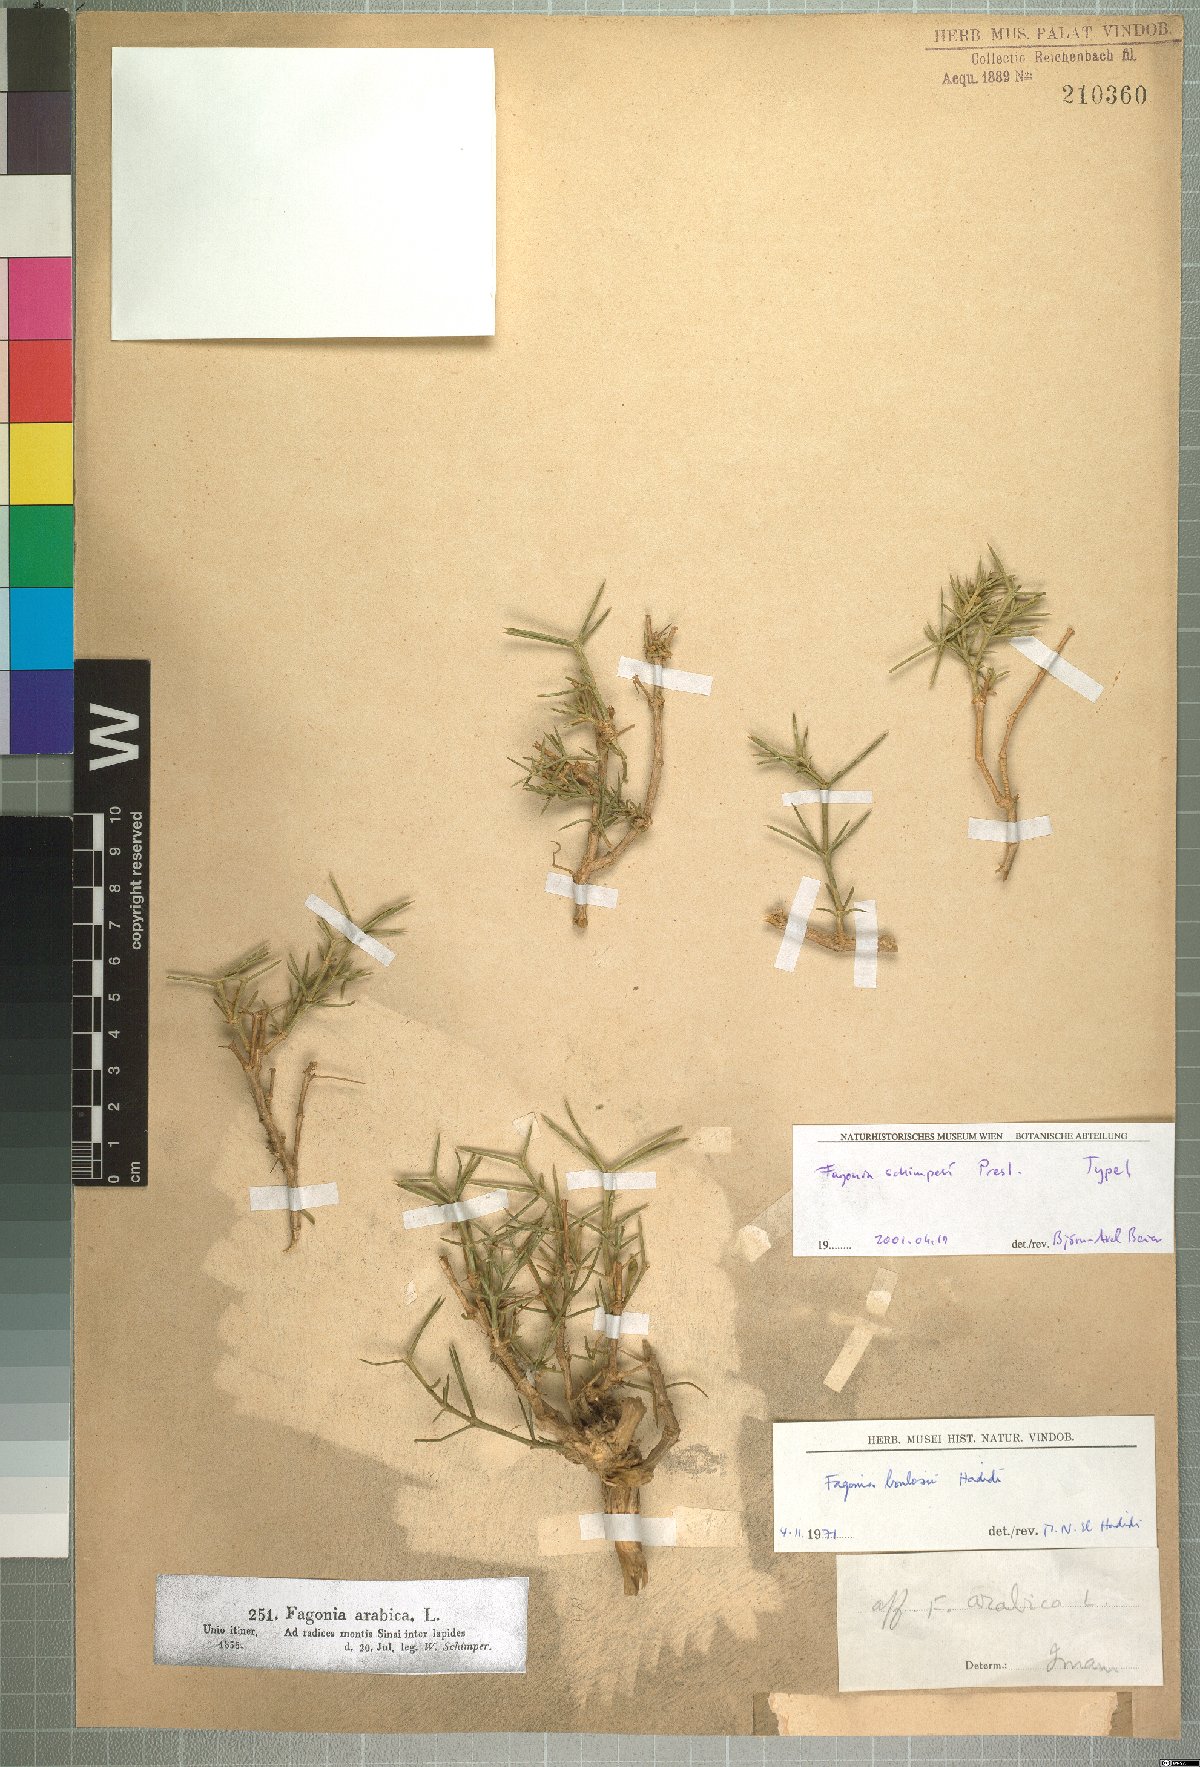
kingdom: Plantae
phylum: Tracheophyta
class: Magnoliopsida
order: Zygophyllales
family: Zygophyllaceae
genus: Fagonia
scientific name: Fagonia bruguieri
